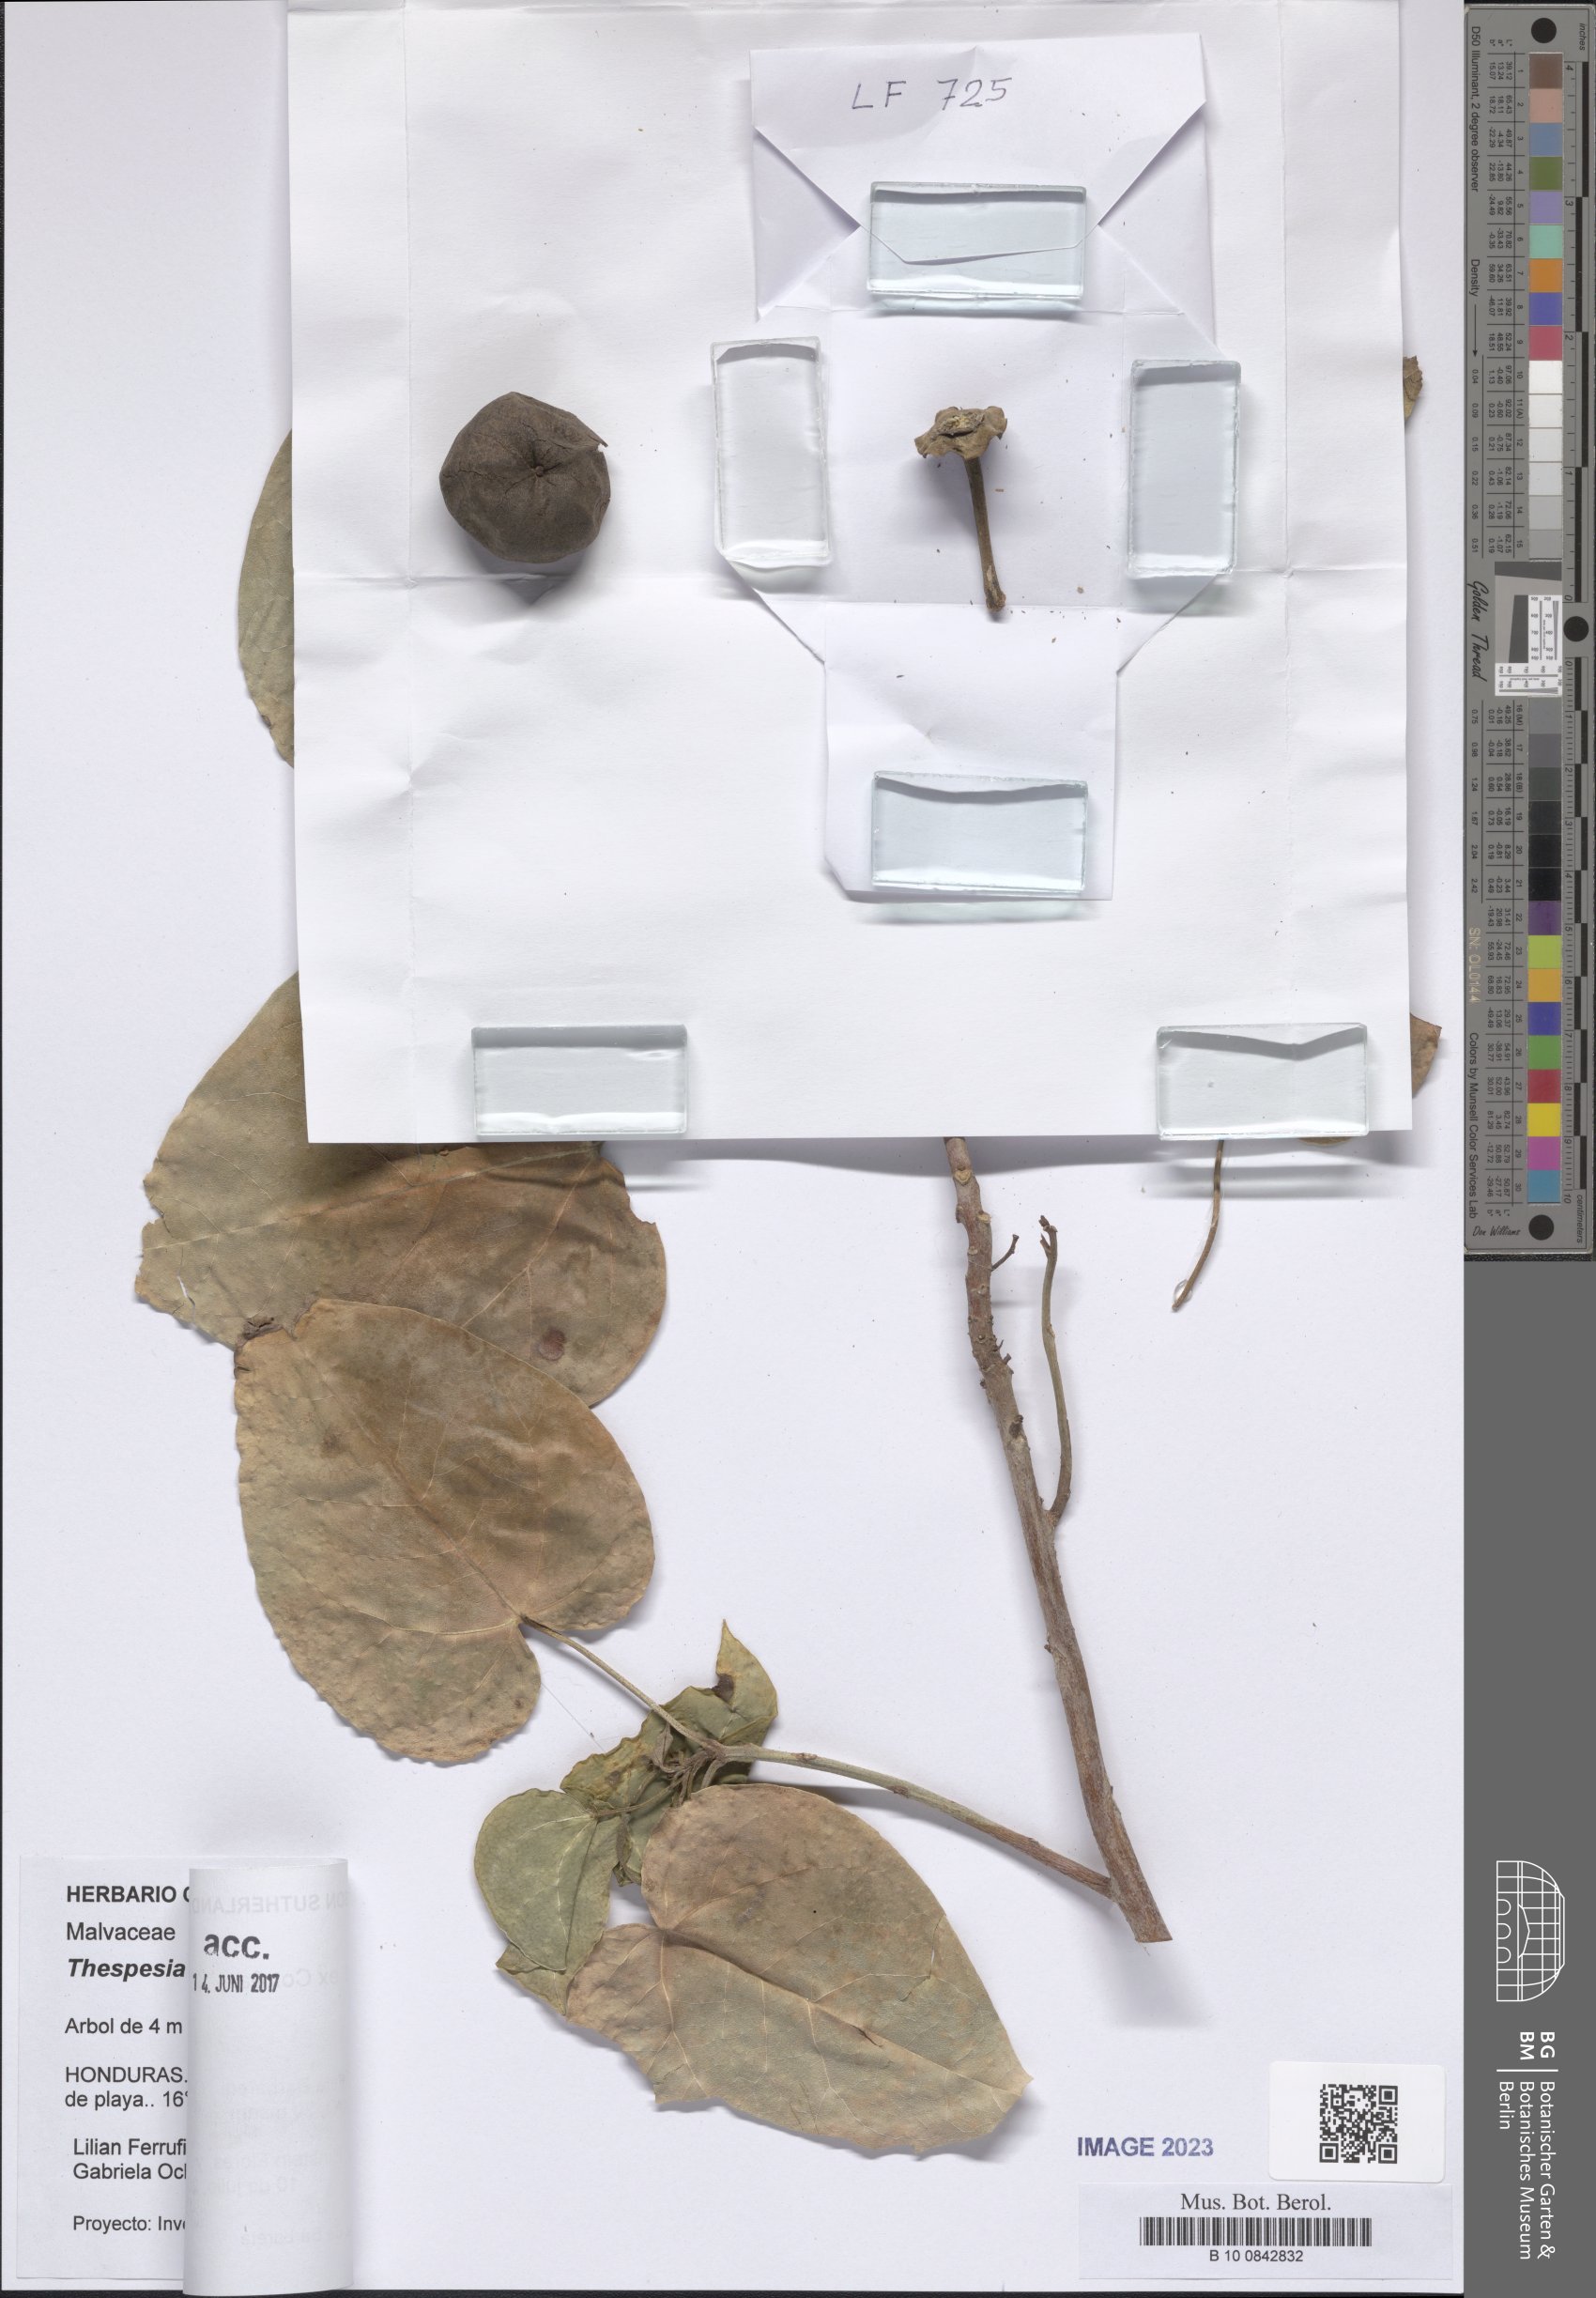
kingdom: Plantae
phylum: Tracheophyta
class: Magnoliopsida
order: Malvales
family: Malvaceae
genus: Thespesia
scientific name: Thespesia populnea
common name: Seaside mahoe
